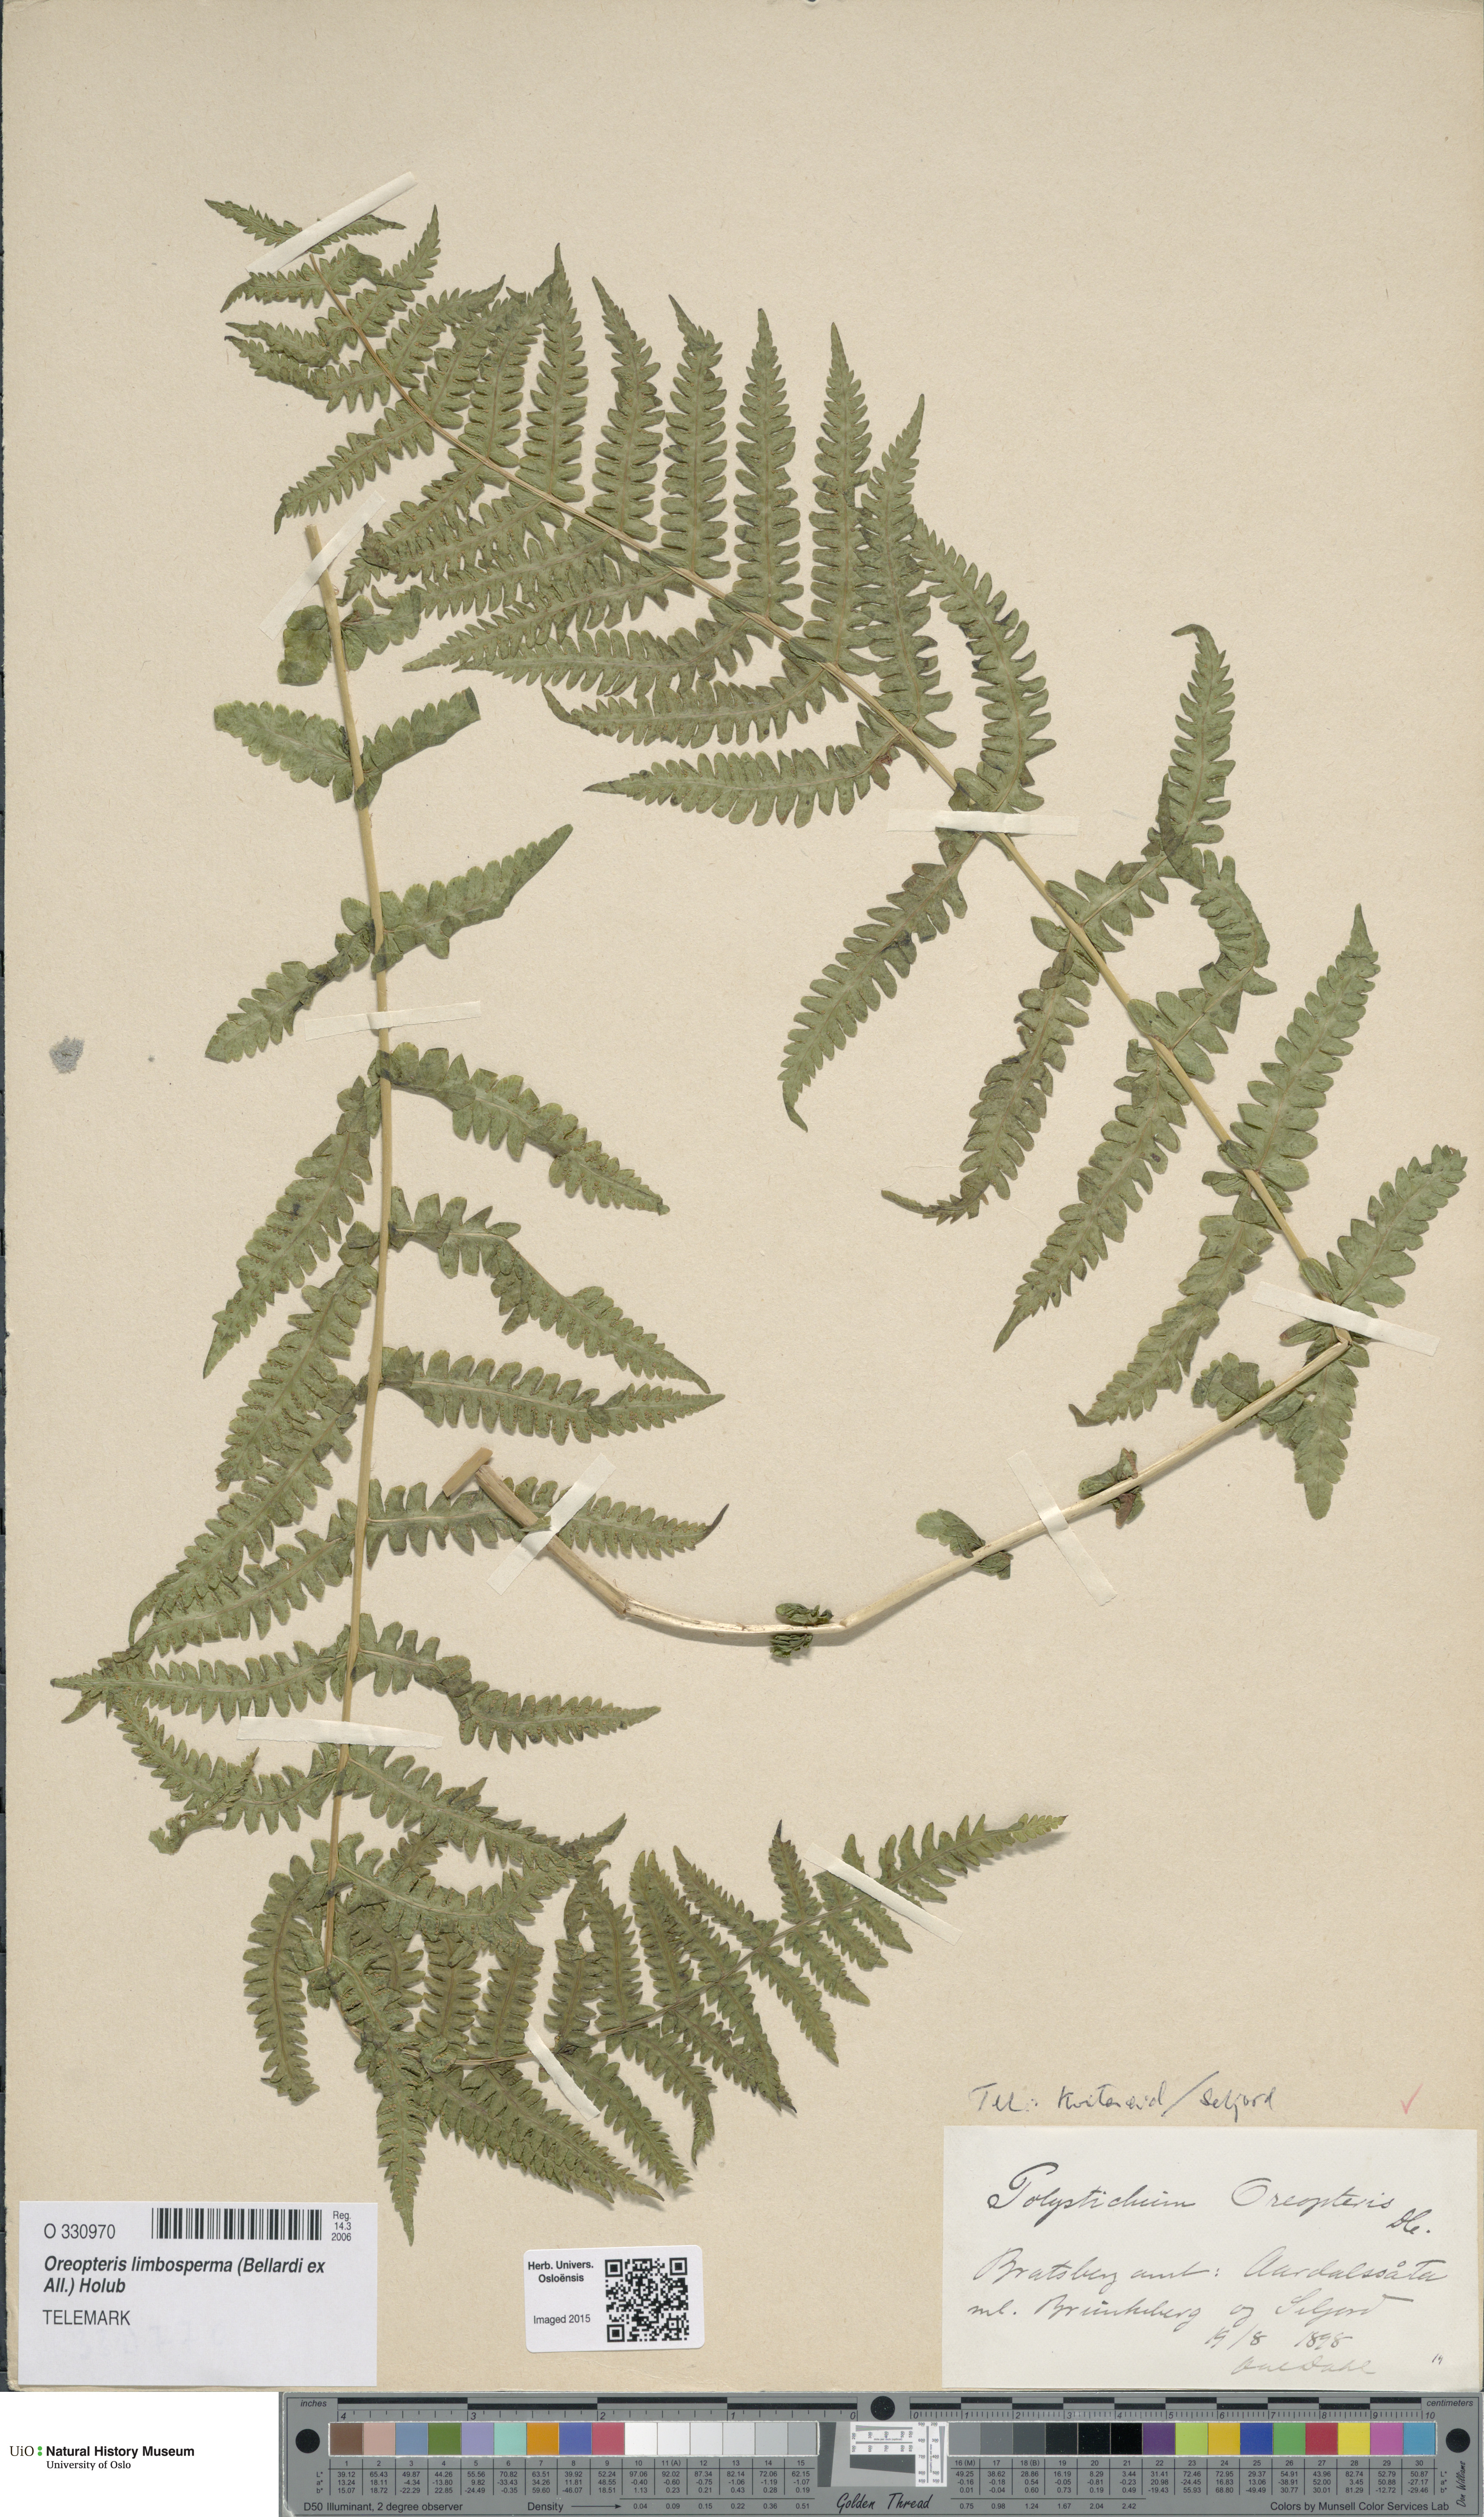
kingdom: Plantae
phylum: Tracheophyta
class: Polypodiopsida
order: Polypodiales
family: Thelypteridaceae
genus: Oreopteris
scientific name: Oreopteris limbosperma
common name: Lemon-scented fern
